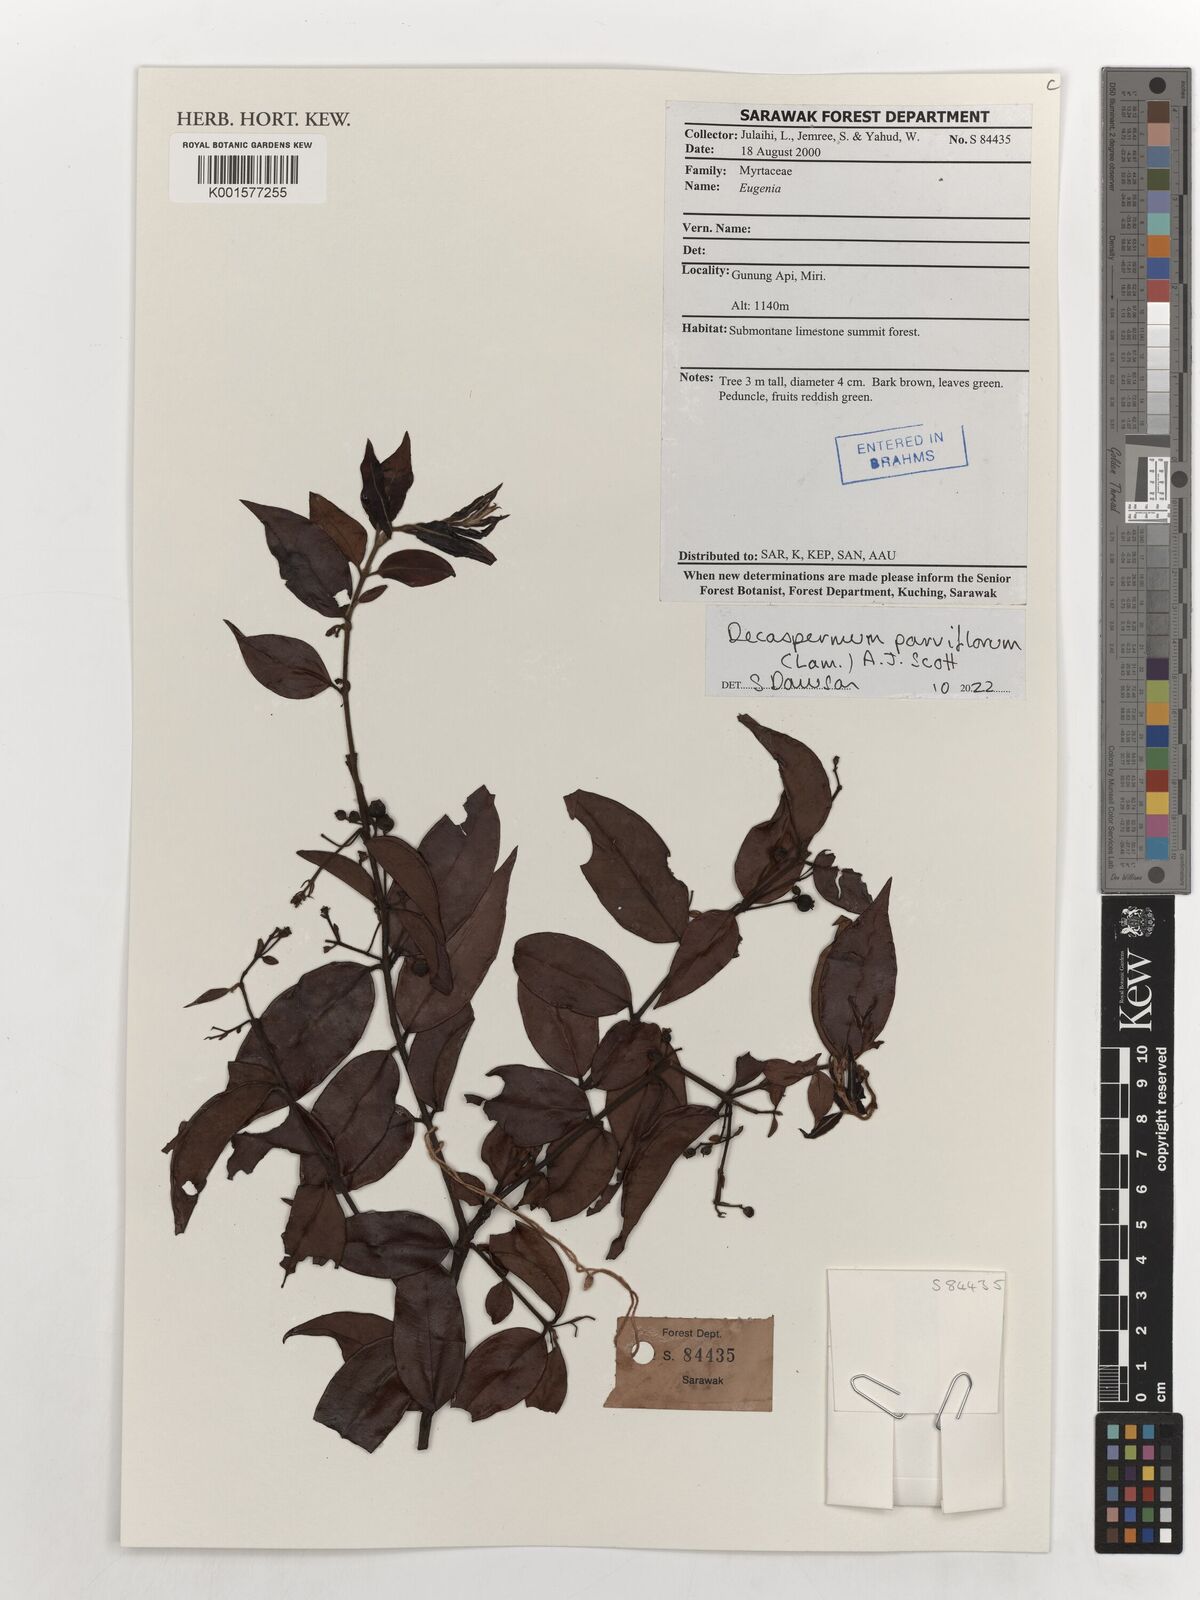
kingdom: Plantae
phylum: Tracheophyta
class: Magnoliopsida
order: Myrtales
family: Myrtaceae
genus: Decaspermum
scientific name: Decaspermum parviflorum
